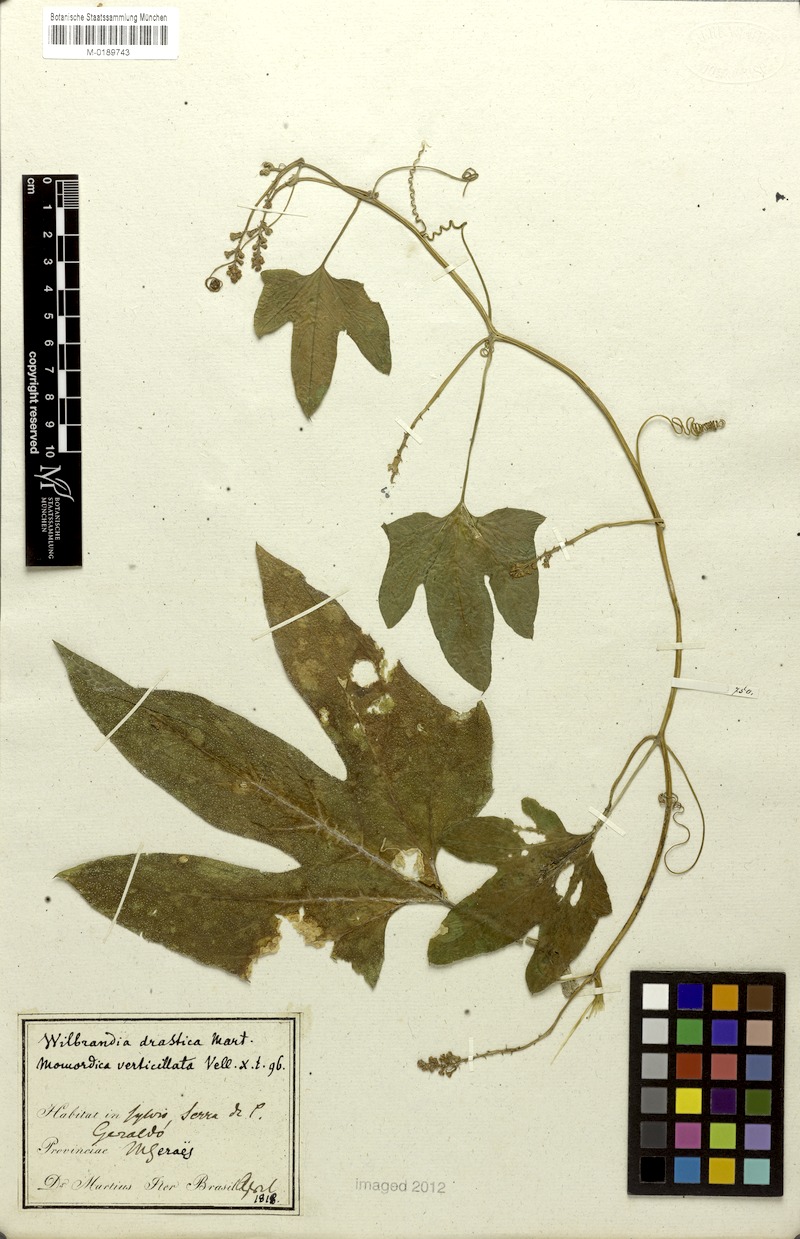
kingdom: Plantae
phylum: Tracheophyta
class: Magnoliopsida
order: Cucurbitales
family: Cucurbitaceae
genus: Wilbrandia
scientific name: Wilbrandia verticillata
